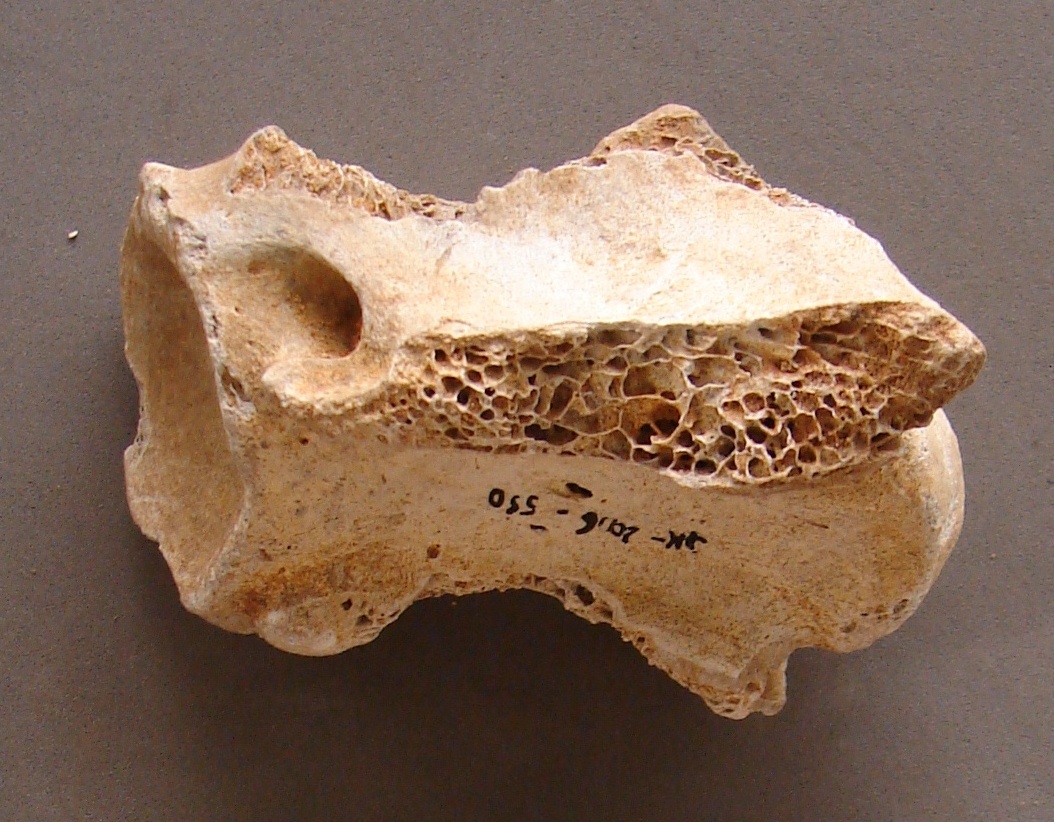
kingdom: Animalia
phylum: Chordata
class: Mammalia
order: Artiodactyla
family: Cervidae
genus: Rangifer
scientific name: Rangifer tarandus
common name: Reindeer
